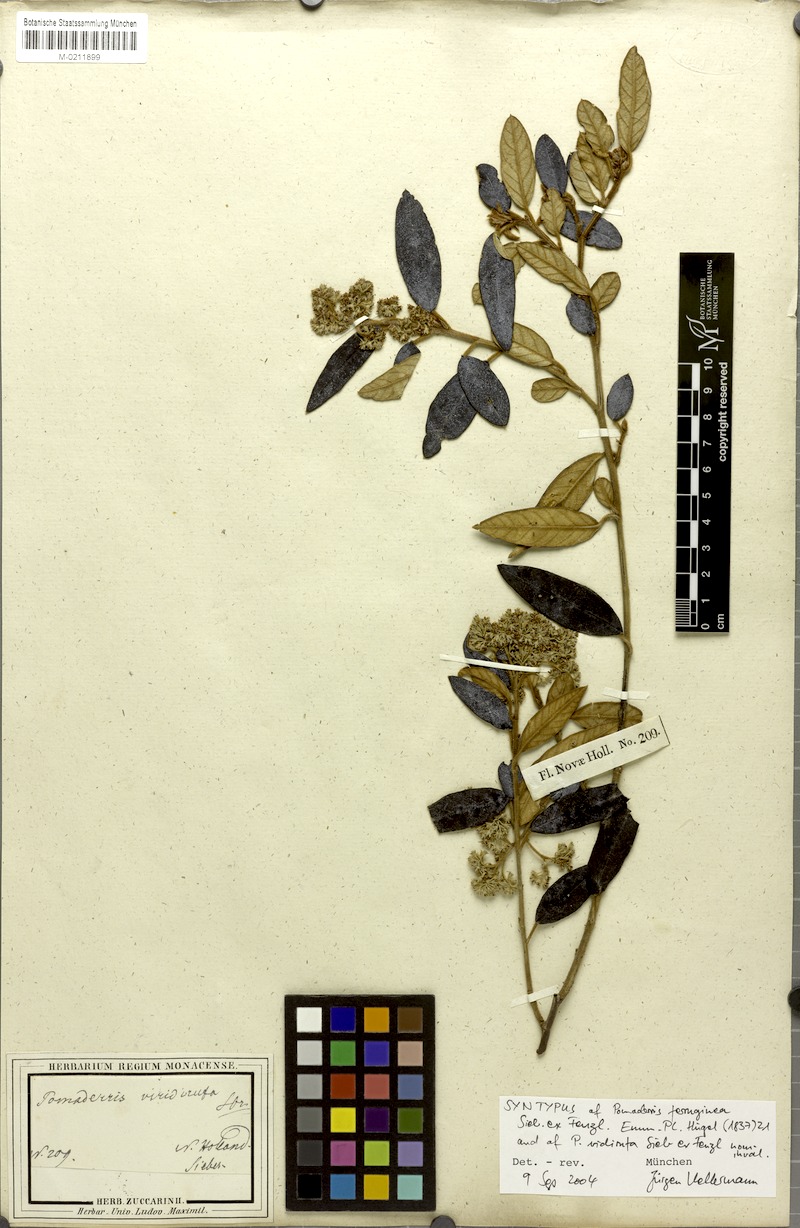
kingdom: Plantae
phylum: Tracheophyta
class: Magnoliopsida
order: Rosales
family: Rhamnaceae
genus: Pomaderris
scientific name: Pomaderris wendlandiana
